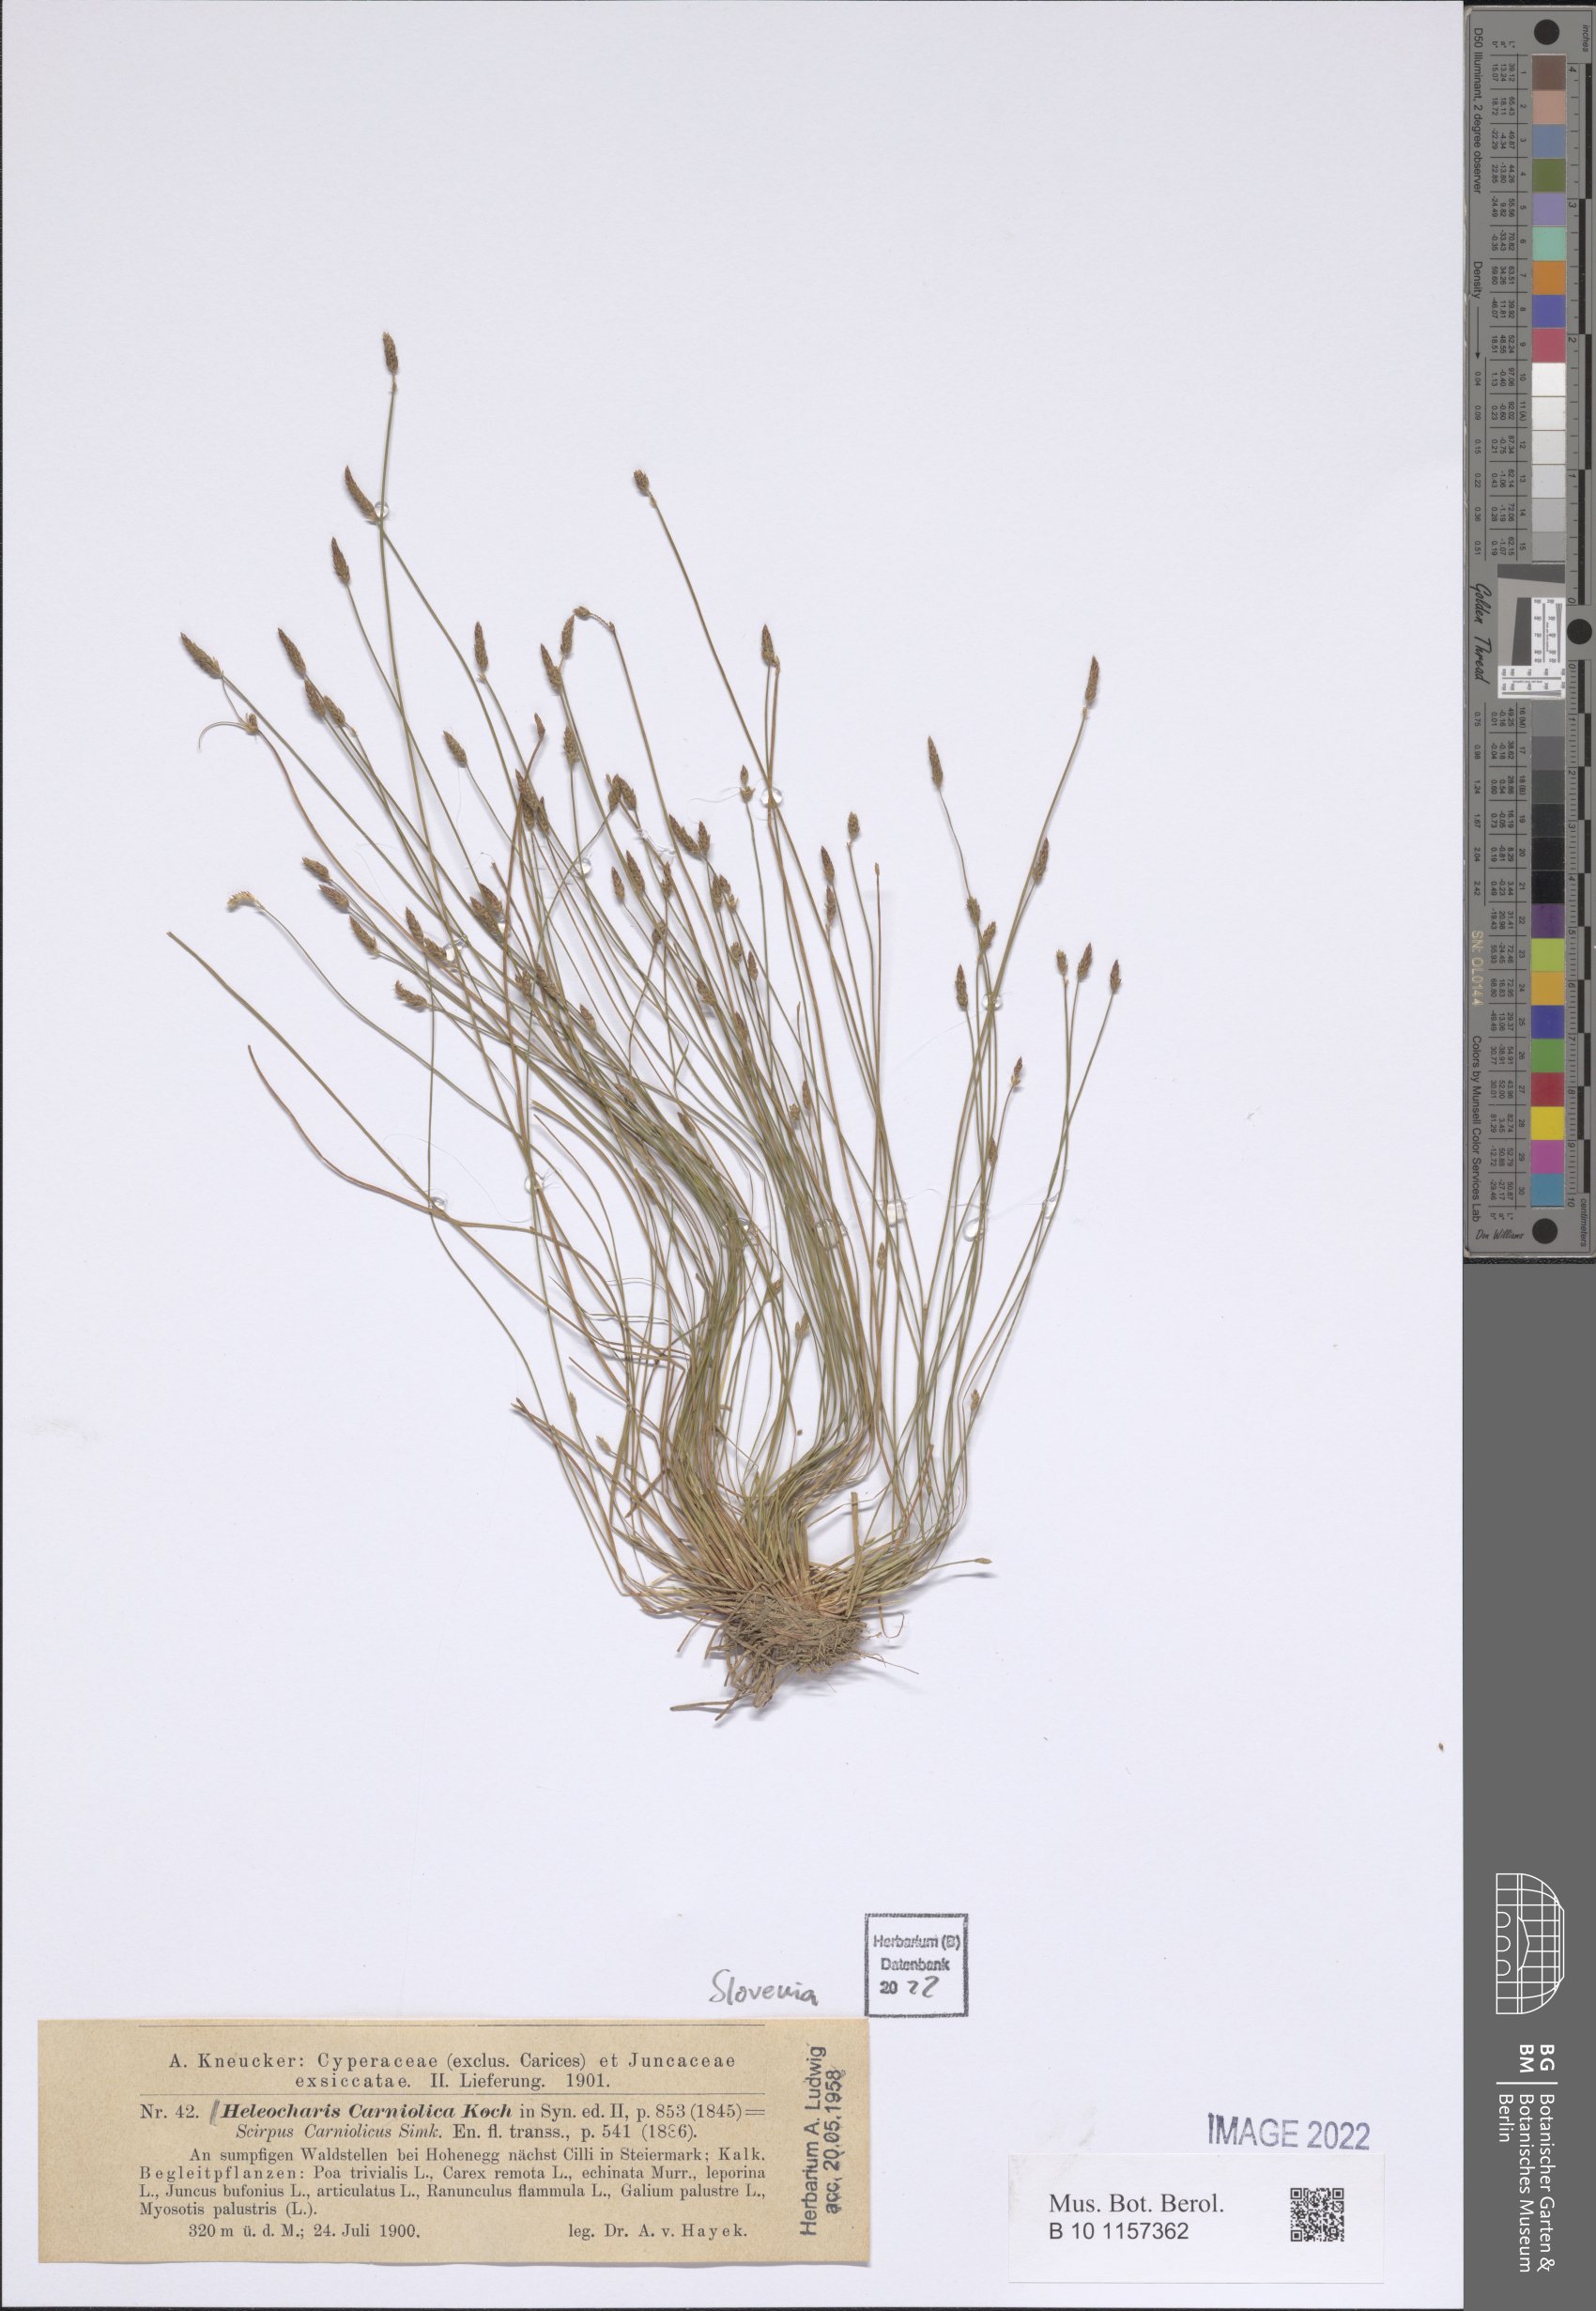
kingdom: Plantae
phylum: Tracheophyta
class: Liliopsida
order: Poales
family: Cyperaceae
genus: Eleocharis
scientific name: Eleocharis carniolica
